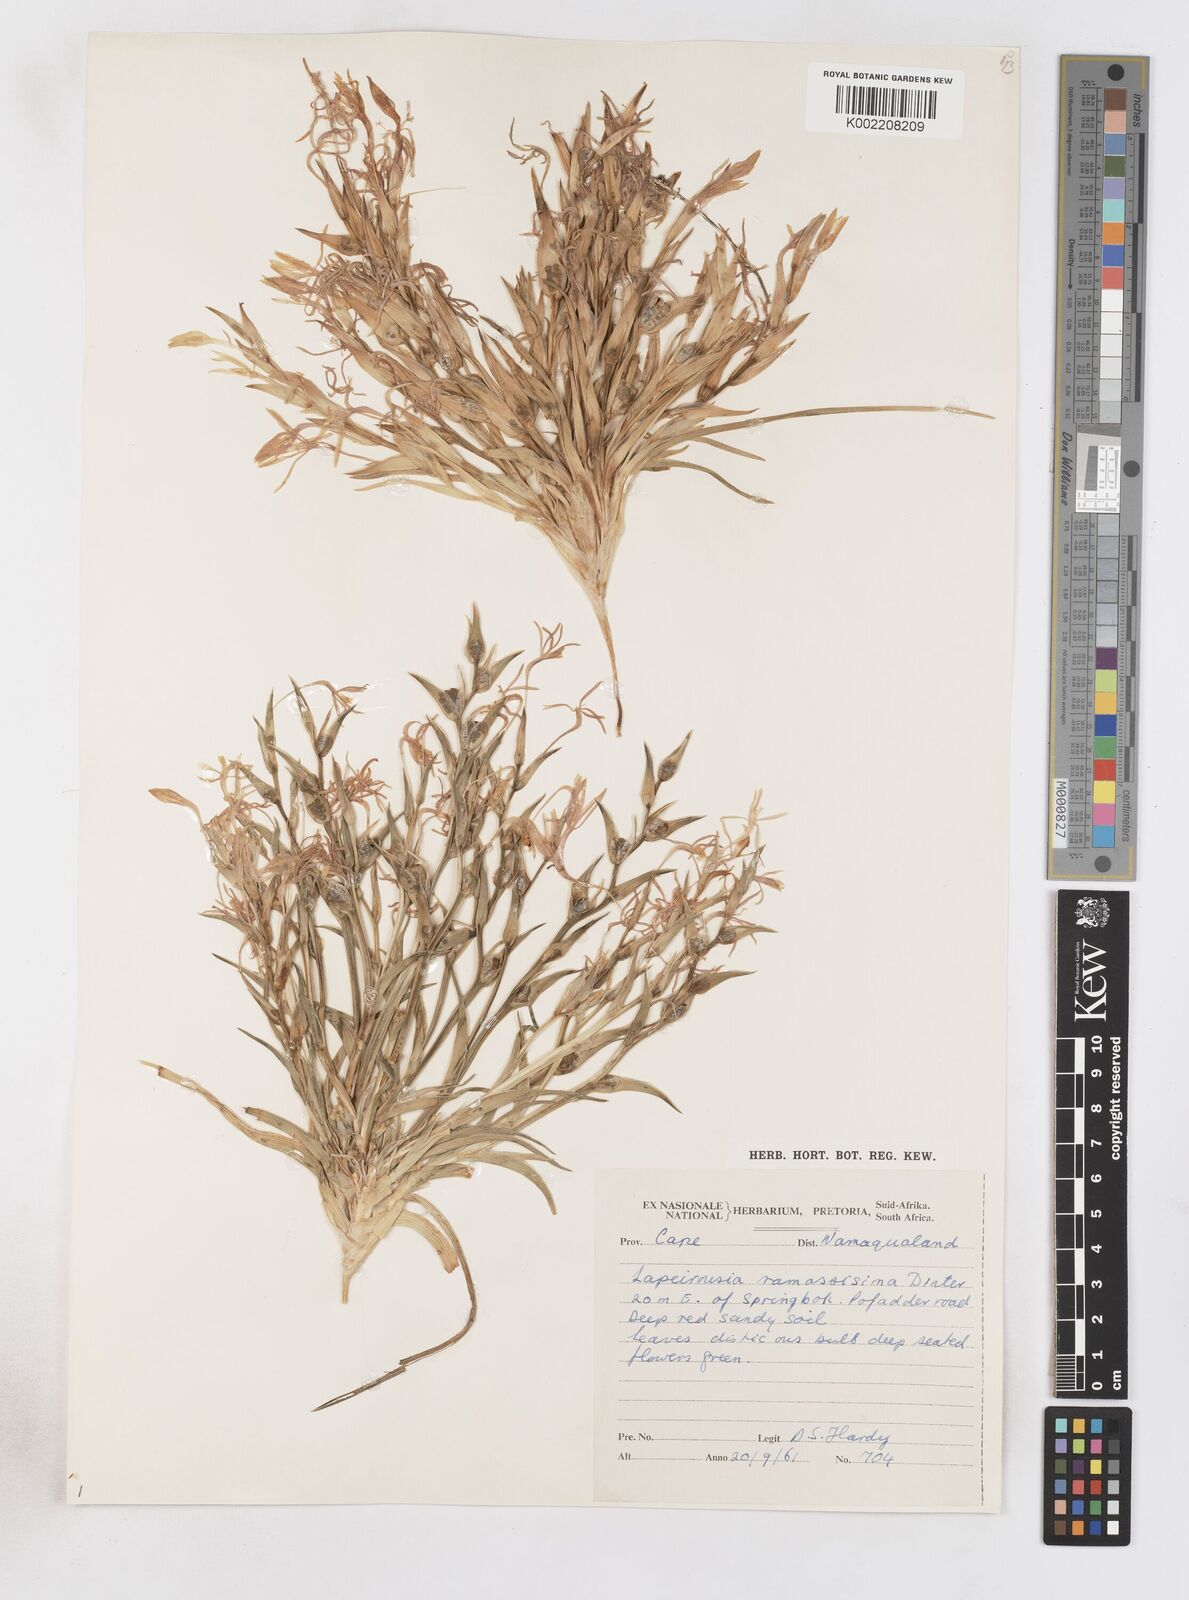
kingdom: Plantae
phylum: Tracheophyta
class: Liliopsida
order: Asparagales
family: Iridaceae
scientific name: Iridaceae
